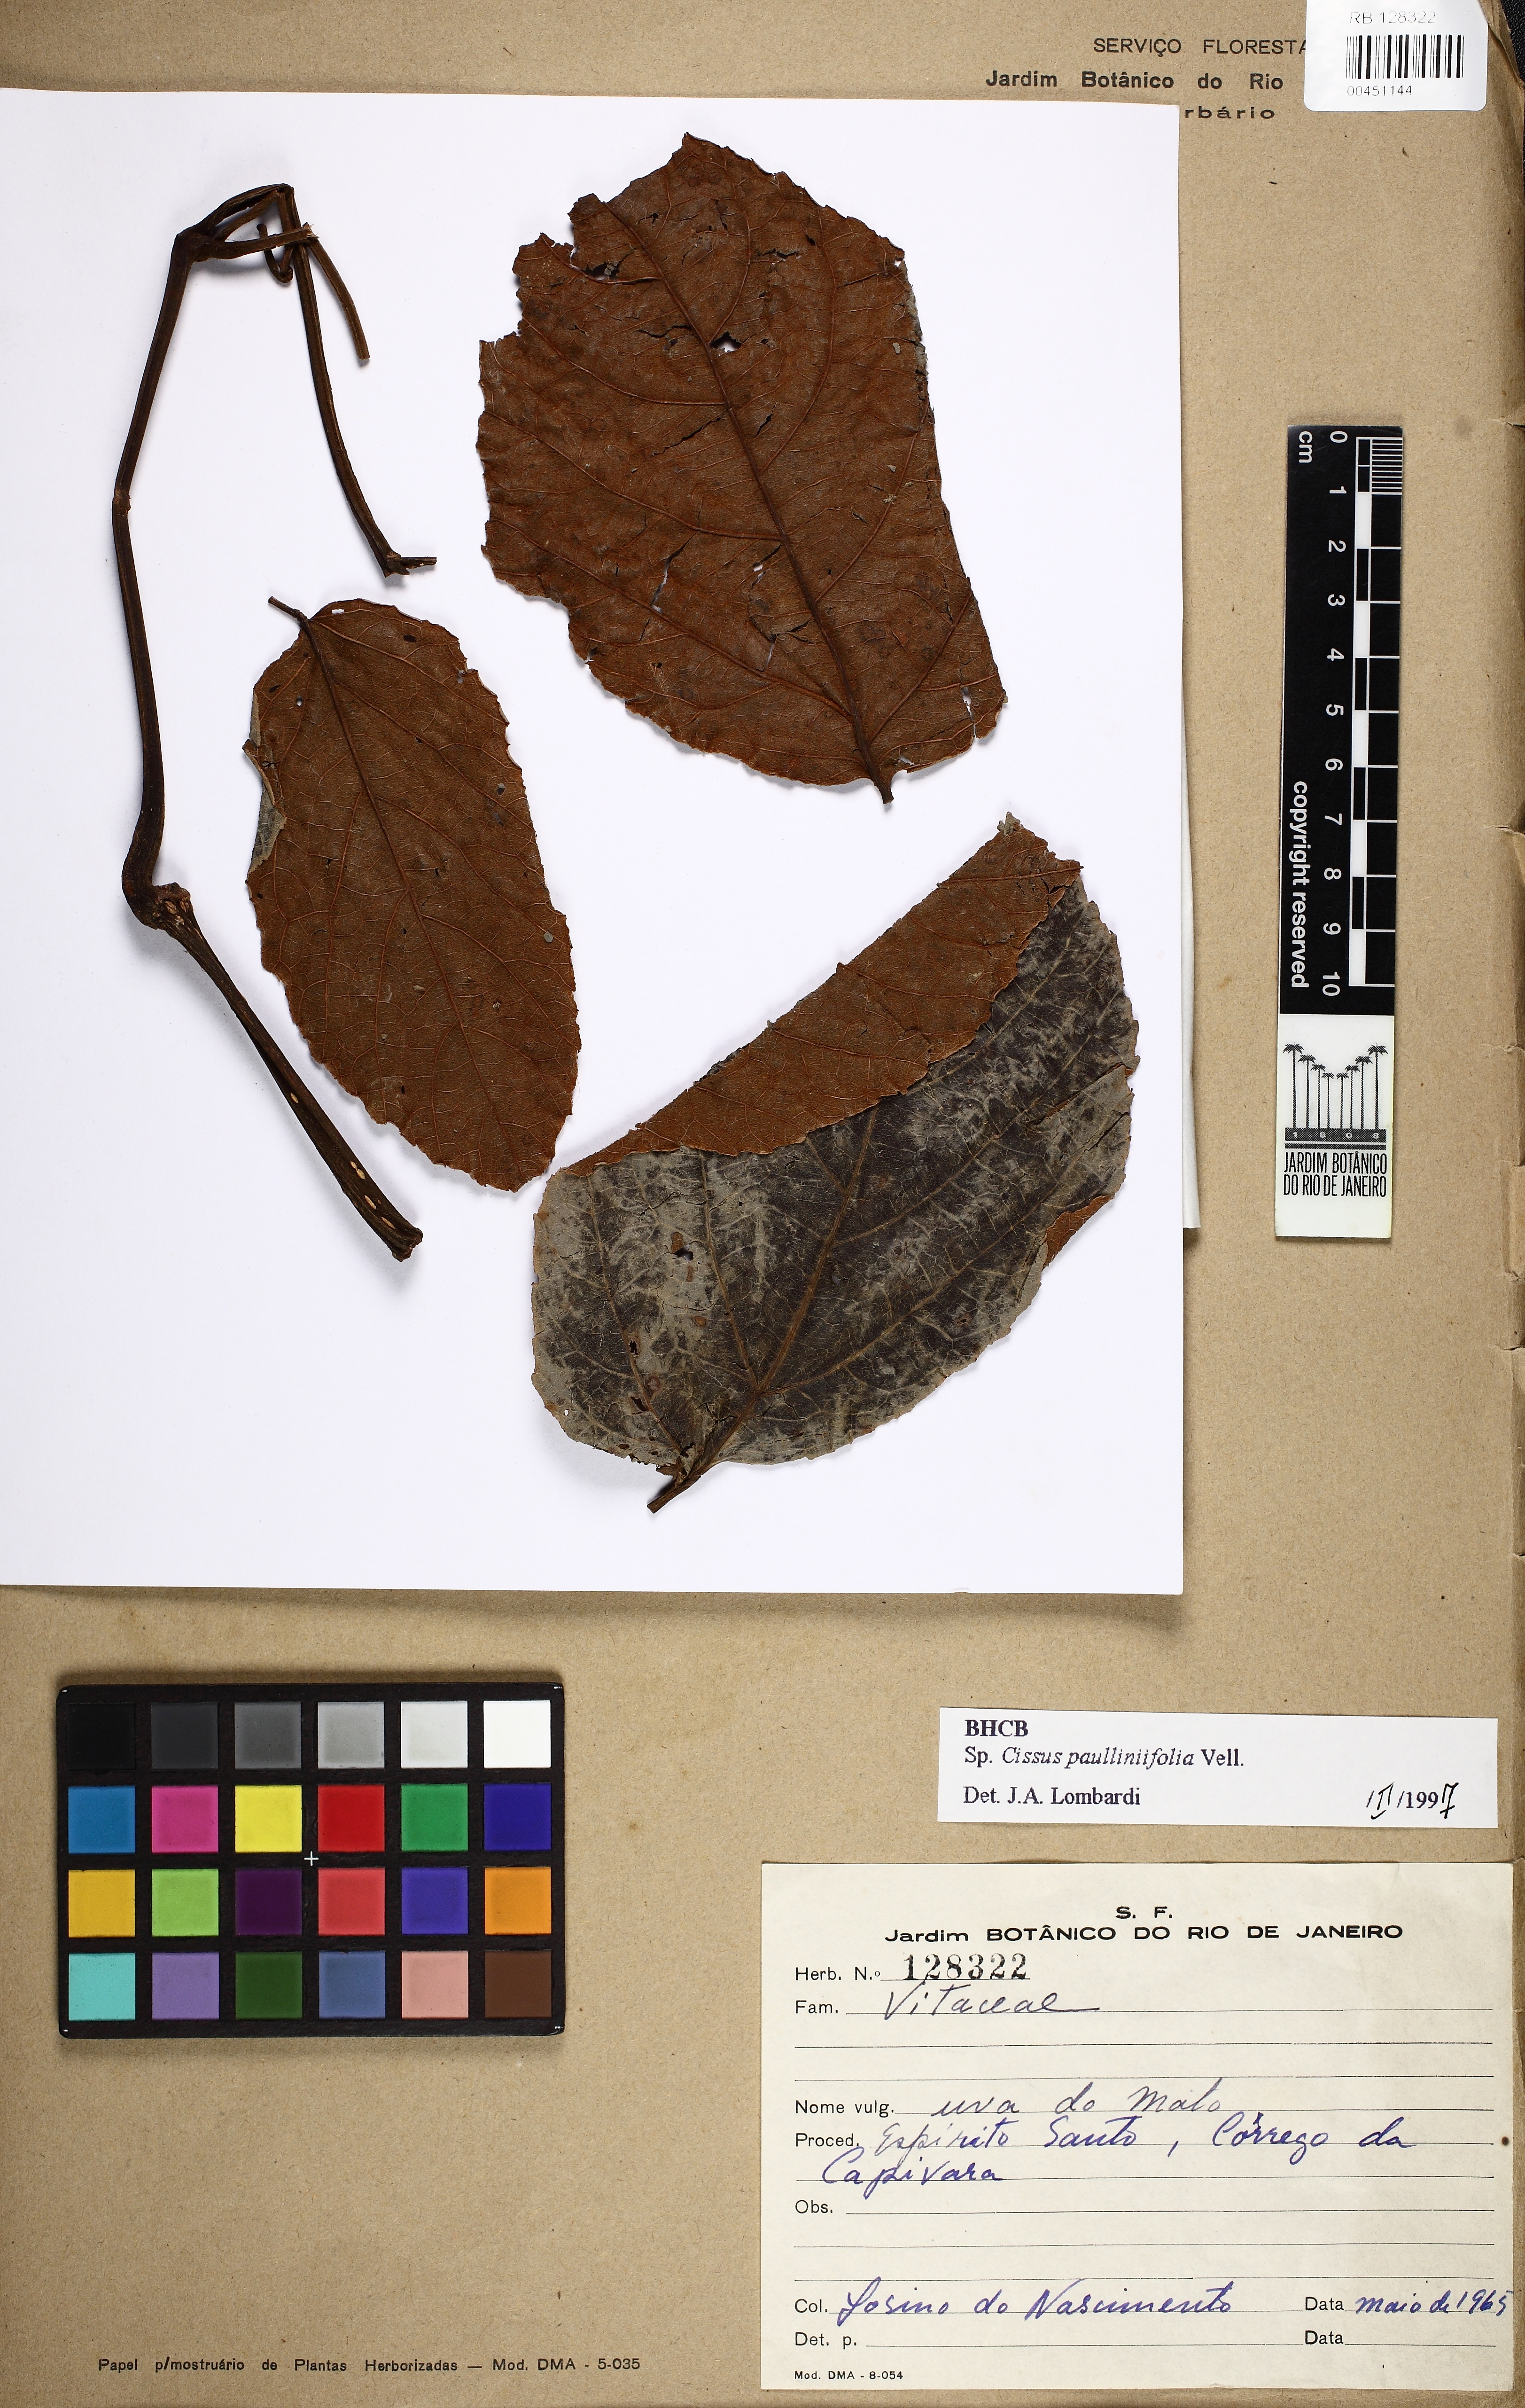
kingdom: Plantae
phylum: Tracheophyta
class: Magnoliopsida
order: Vitales
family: Vitaceae
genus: Cissus
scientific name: Cissus paullinifolia
